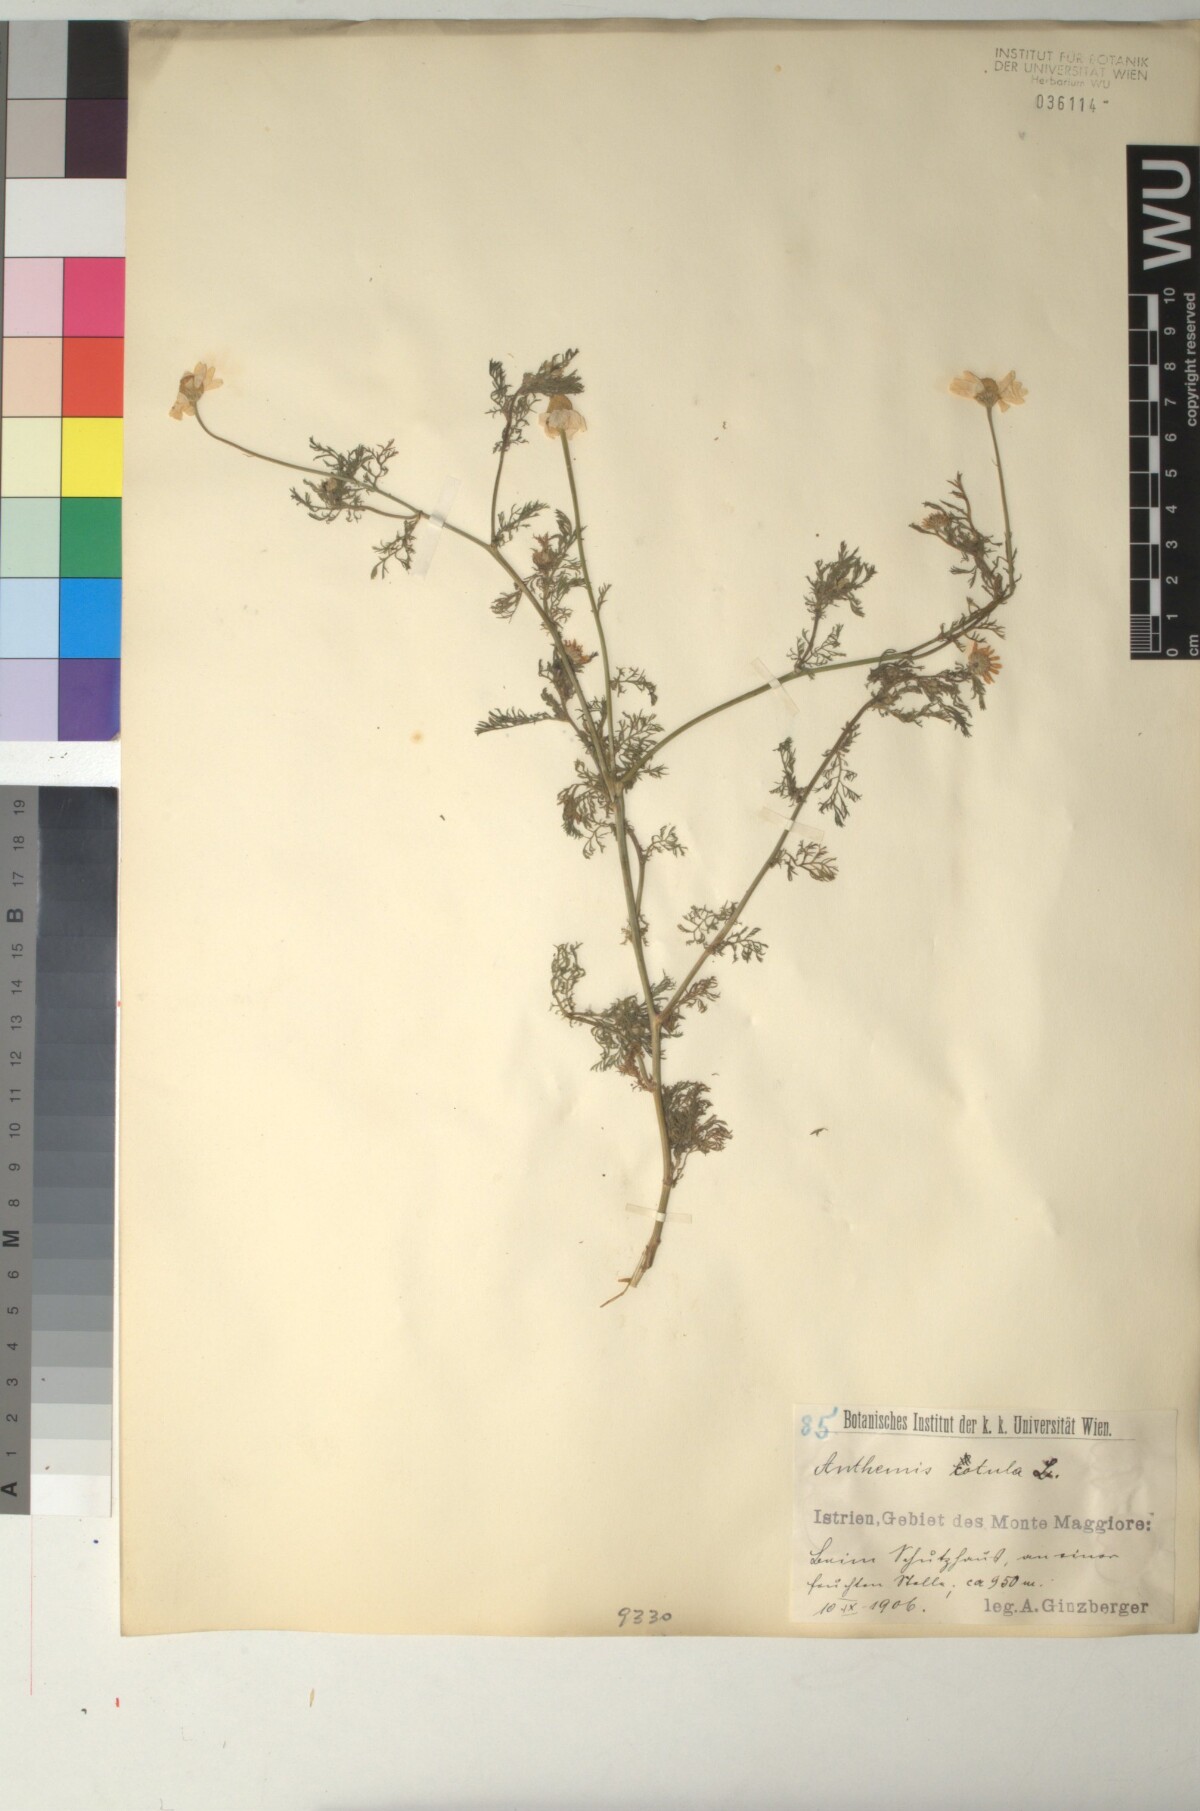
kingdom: Plantae
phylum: Tracheophyta
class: Magnoliopsida
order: Asterales
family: Asteraceae
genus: Anthemis
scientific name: Anthemis cotula
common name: Stinking chamomile
